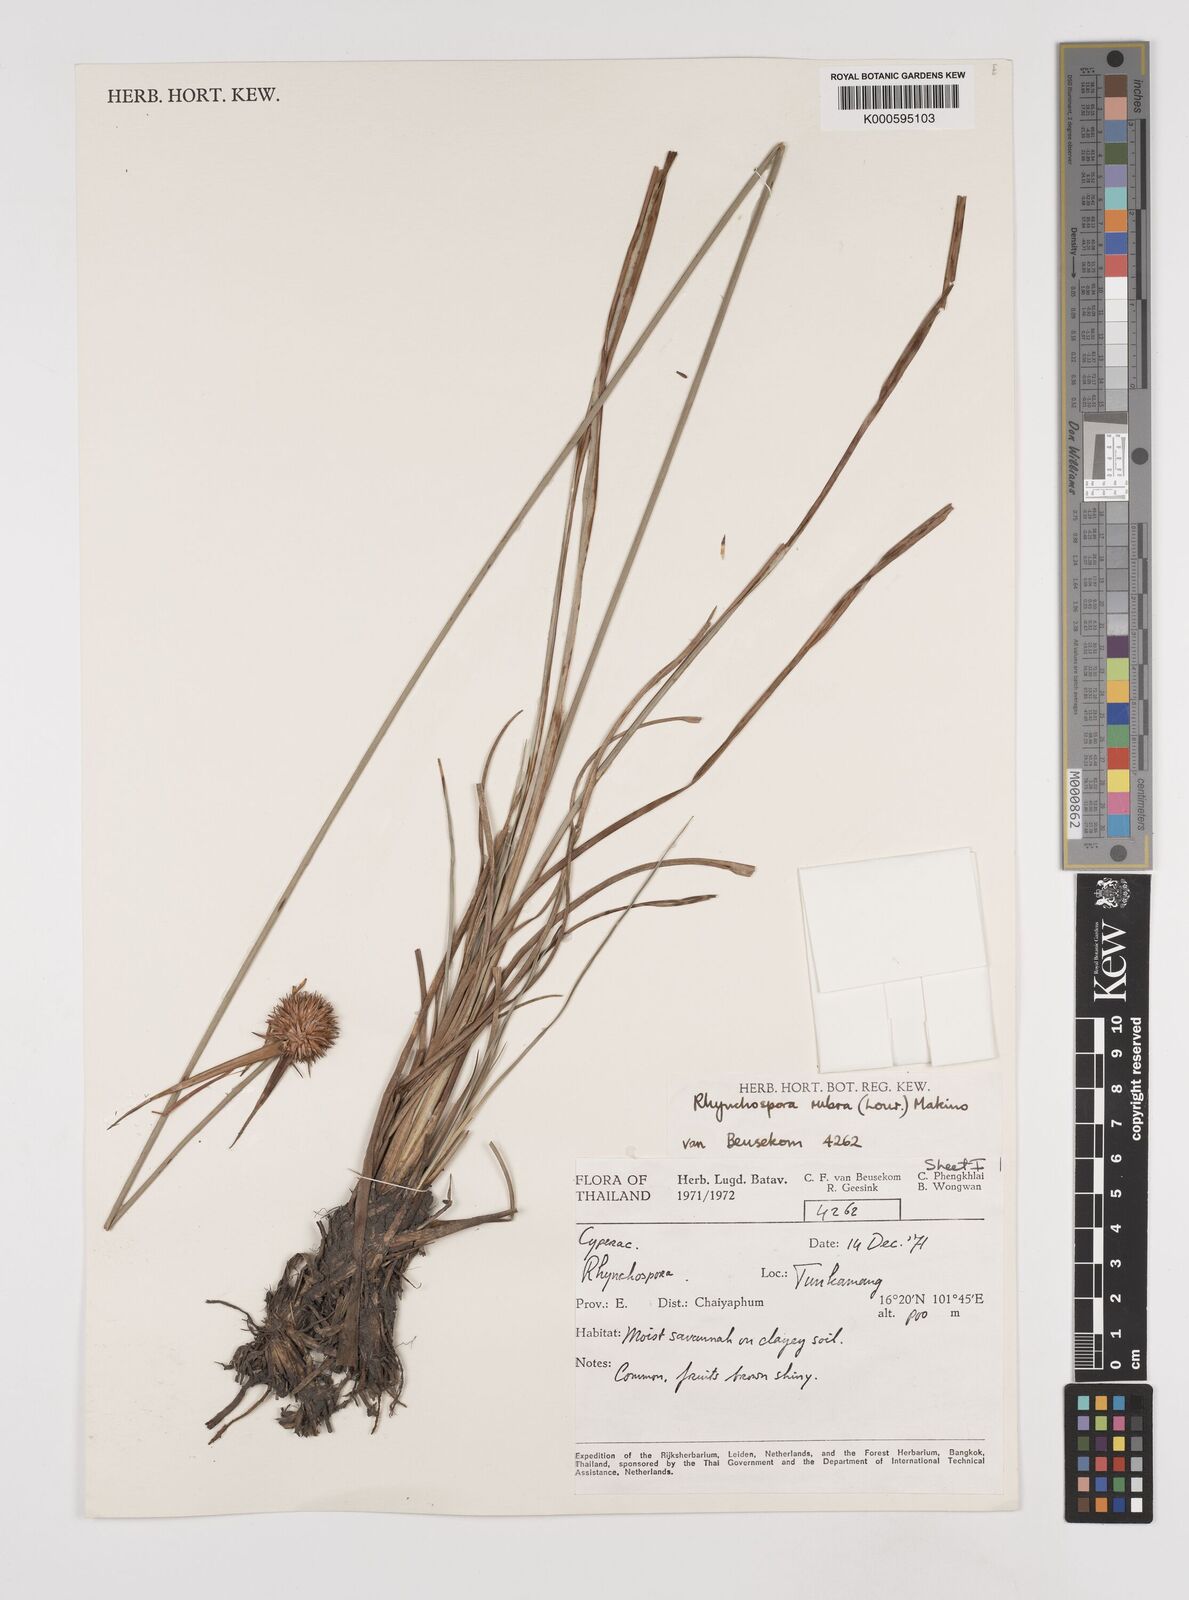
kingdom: Plantae
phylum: Tracheophyta
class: Liliopsida
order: Poales
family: Cyperaceae
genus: Rhynchospora
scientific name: Rhynchospora longisetis
